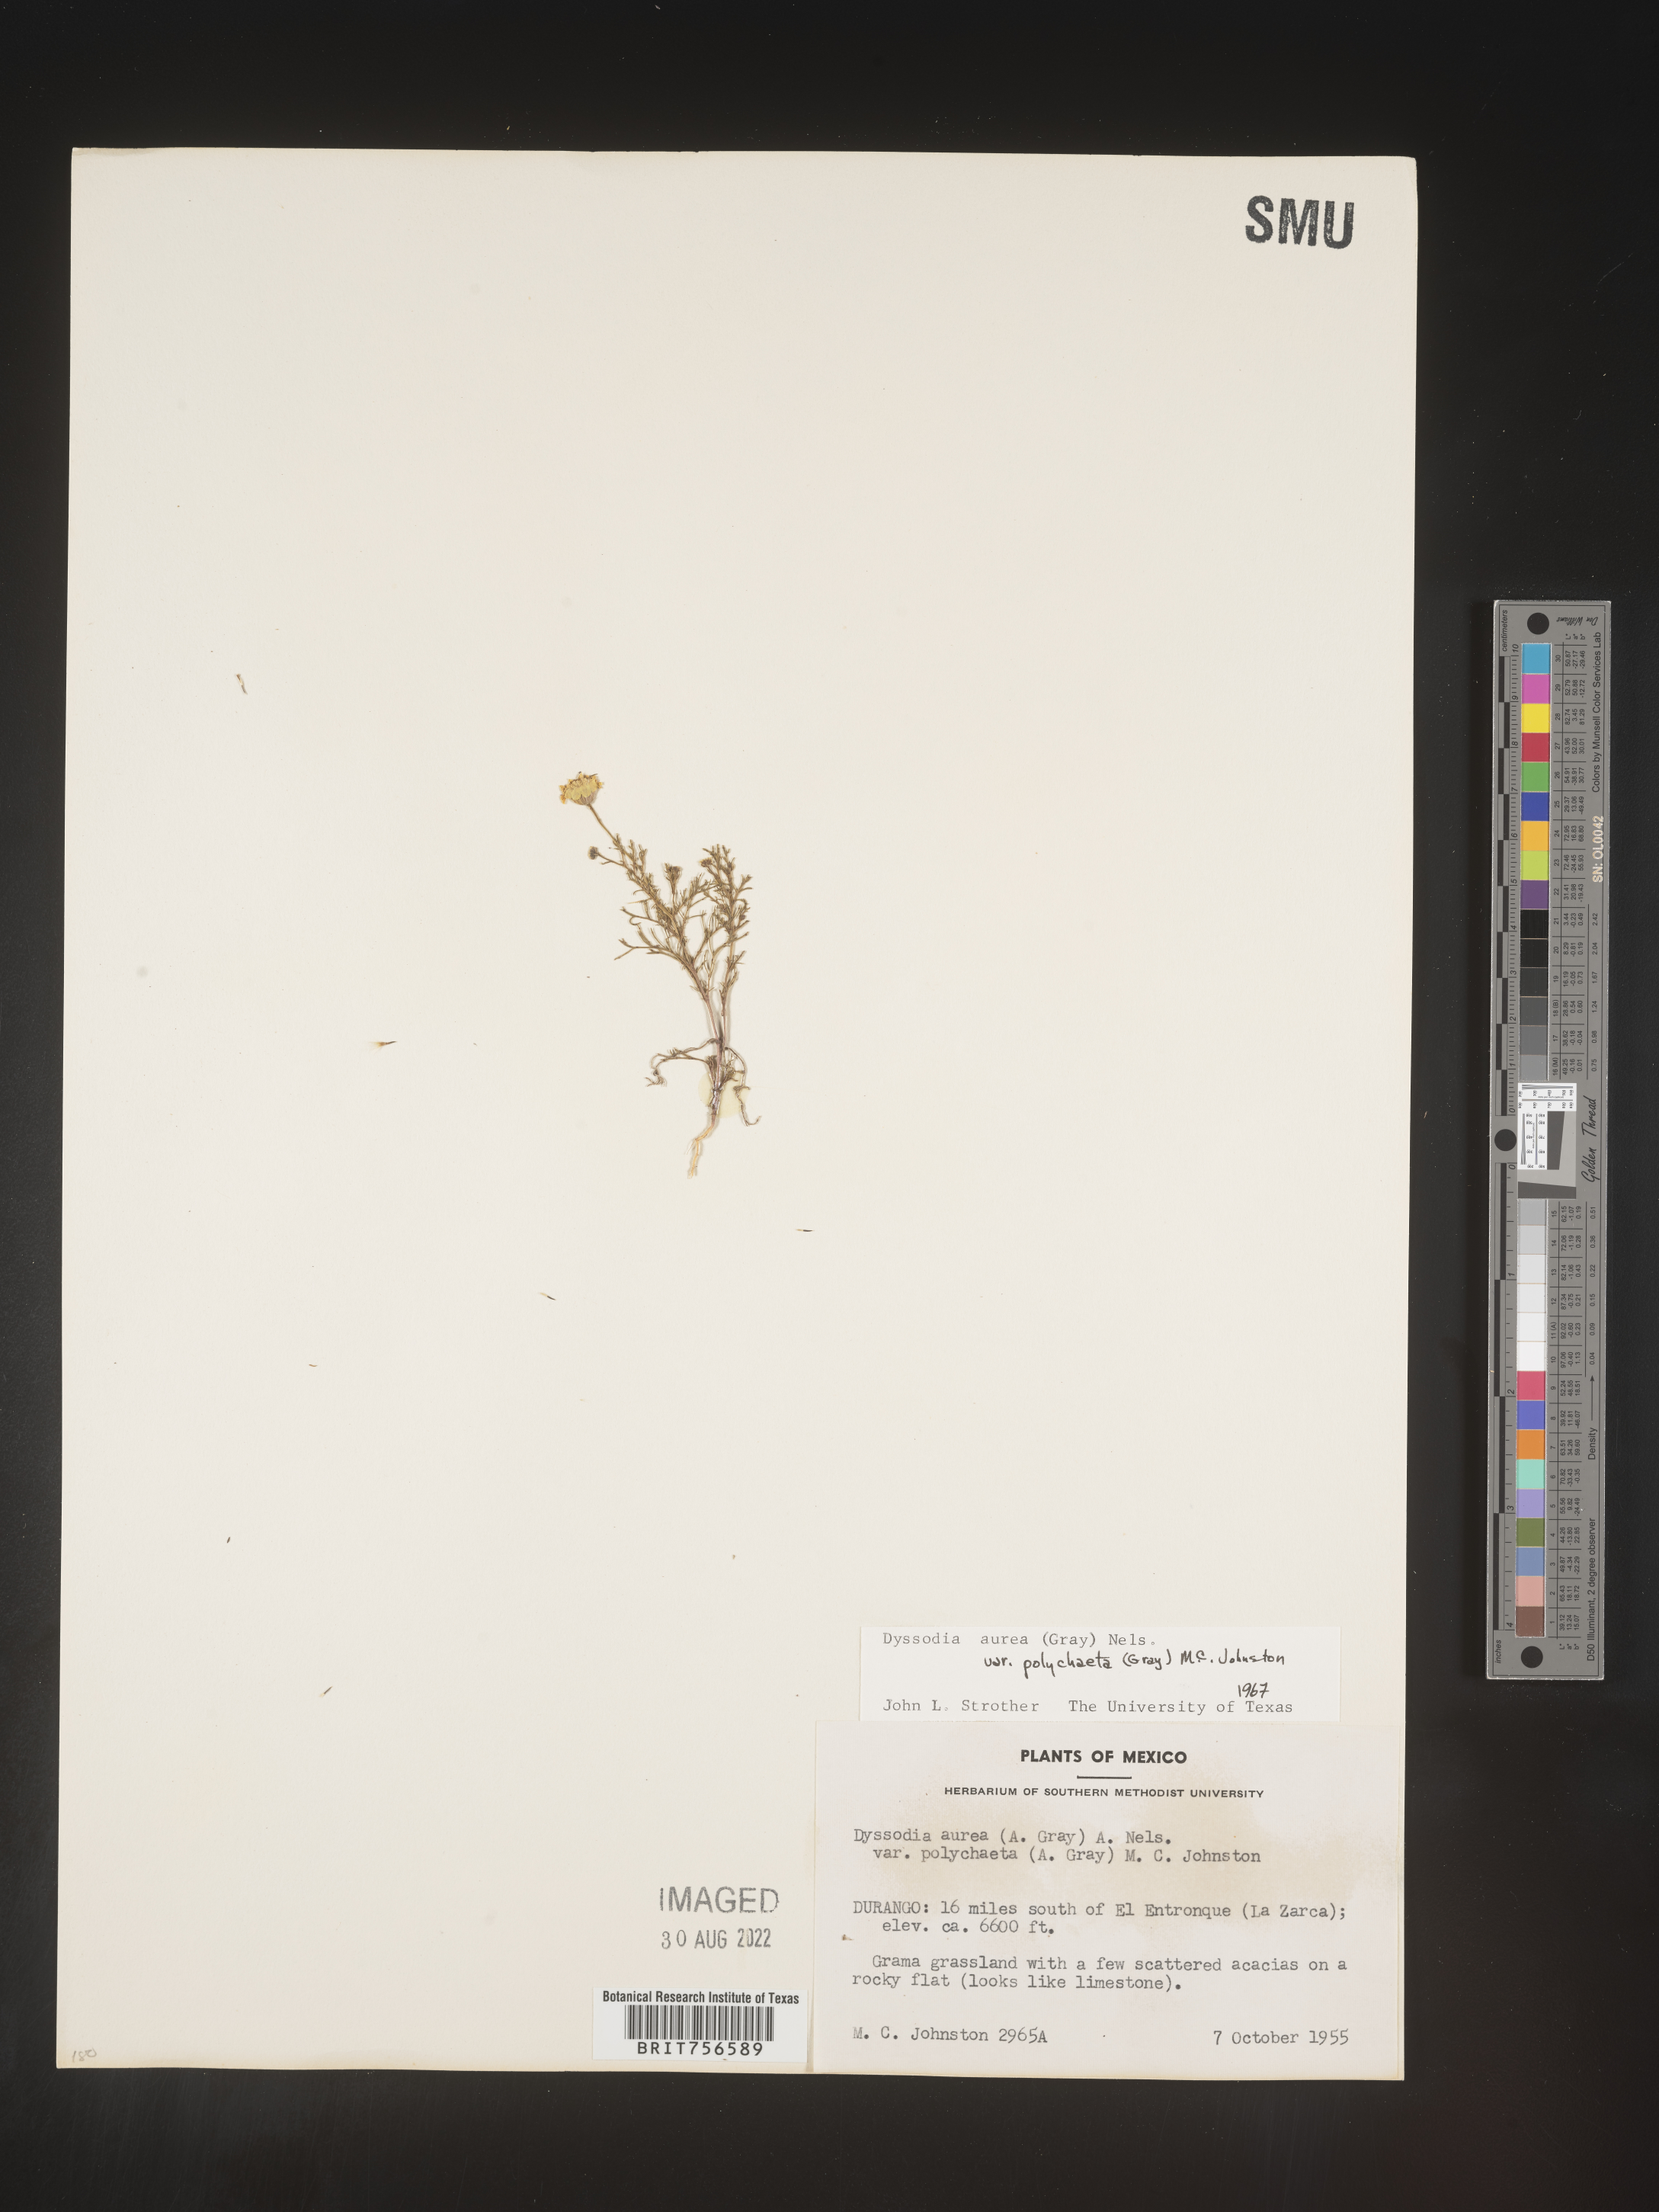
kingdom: Plantae
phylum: Tracheophyta
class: Magnoliopsida
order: Asterales
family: Asteraceae
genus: Thymophylla
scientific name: Thymophylla aurea
